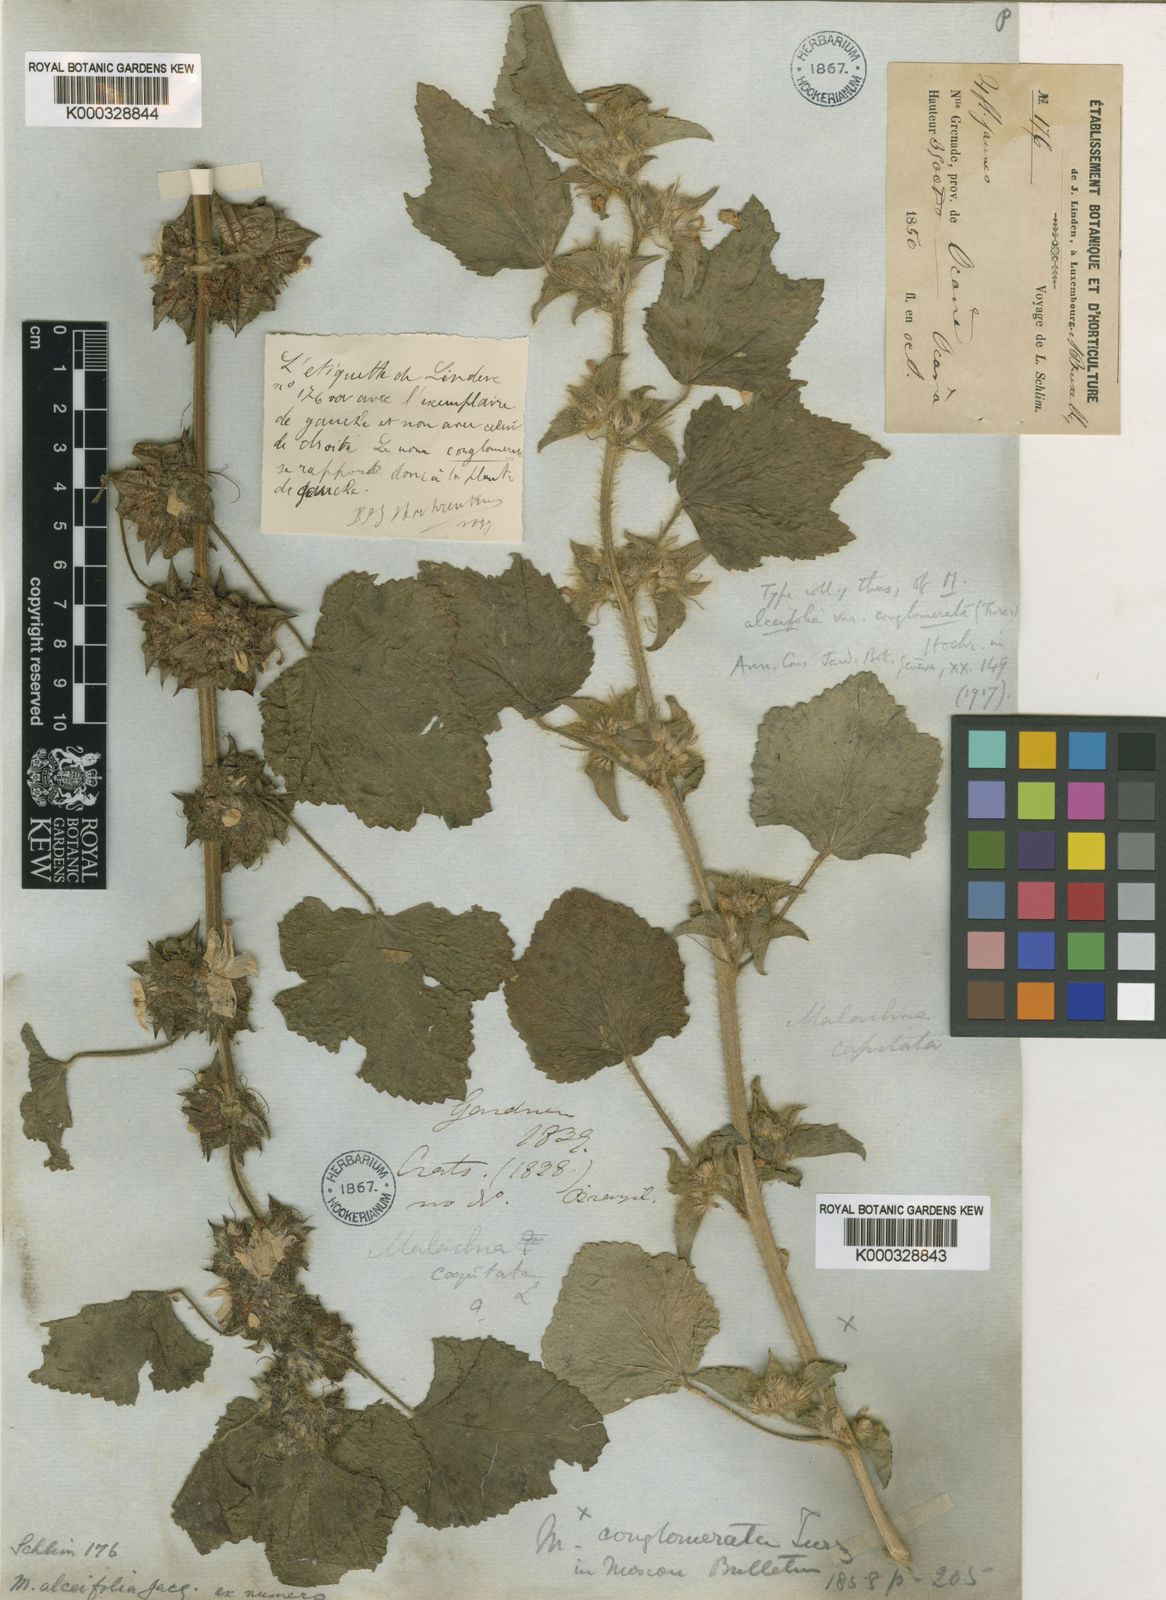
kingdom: Plantae
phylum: Tracheophyta
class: Magnoliopsida
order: Malvales
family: Malvaceae
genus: Malachra
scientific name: Malachra alceifolia
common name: Yellow leafbract
